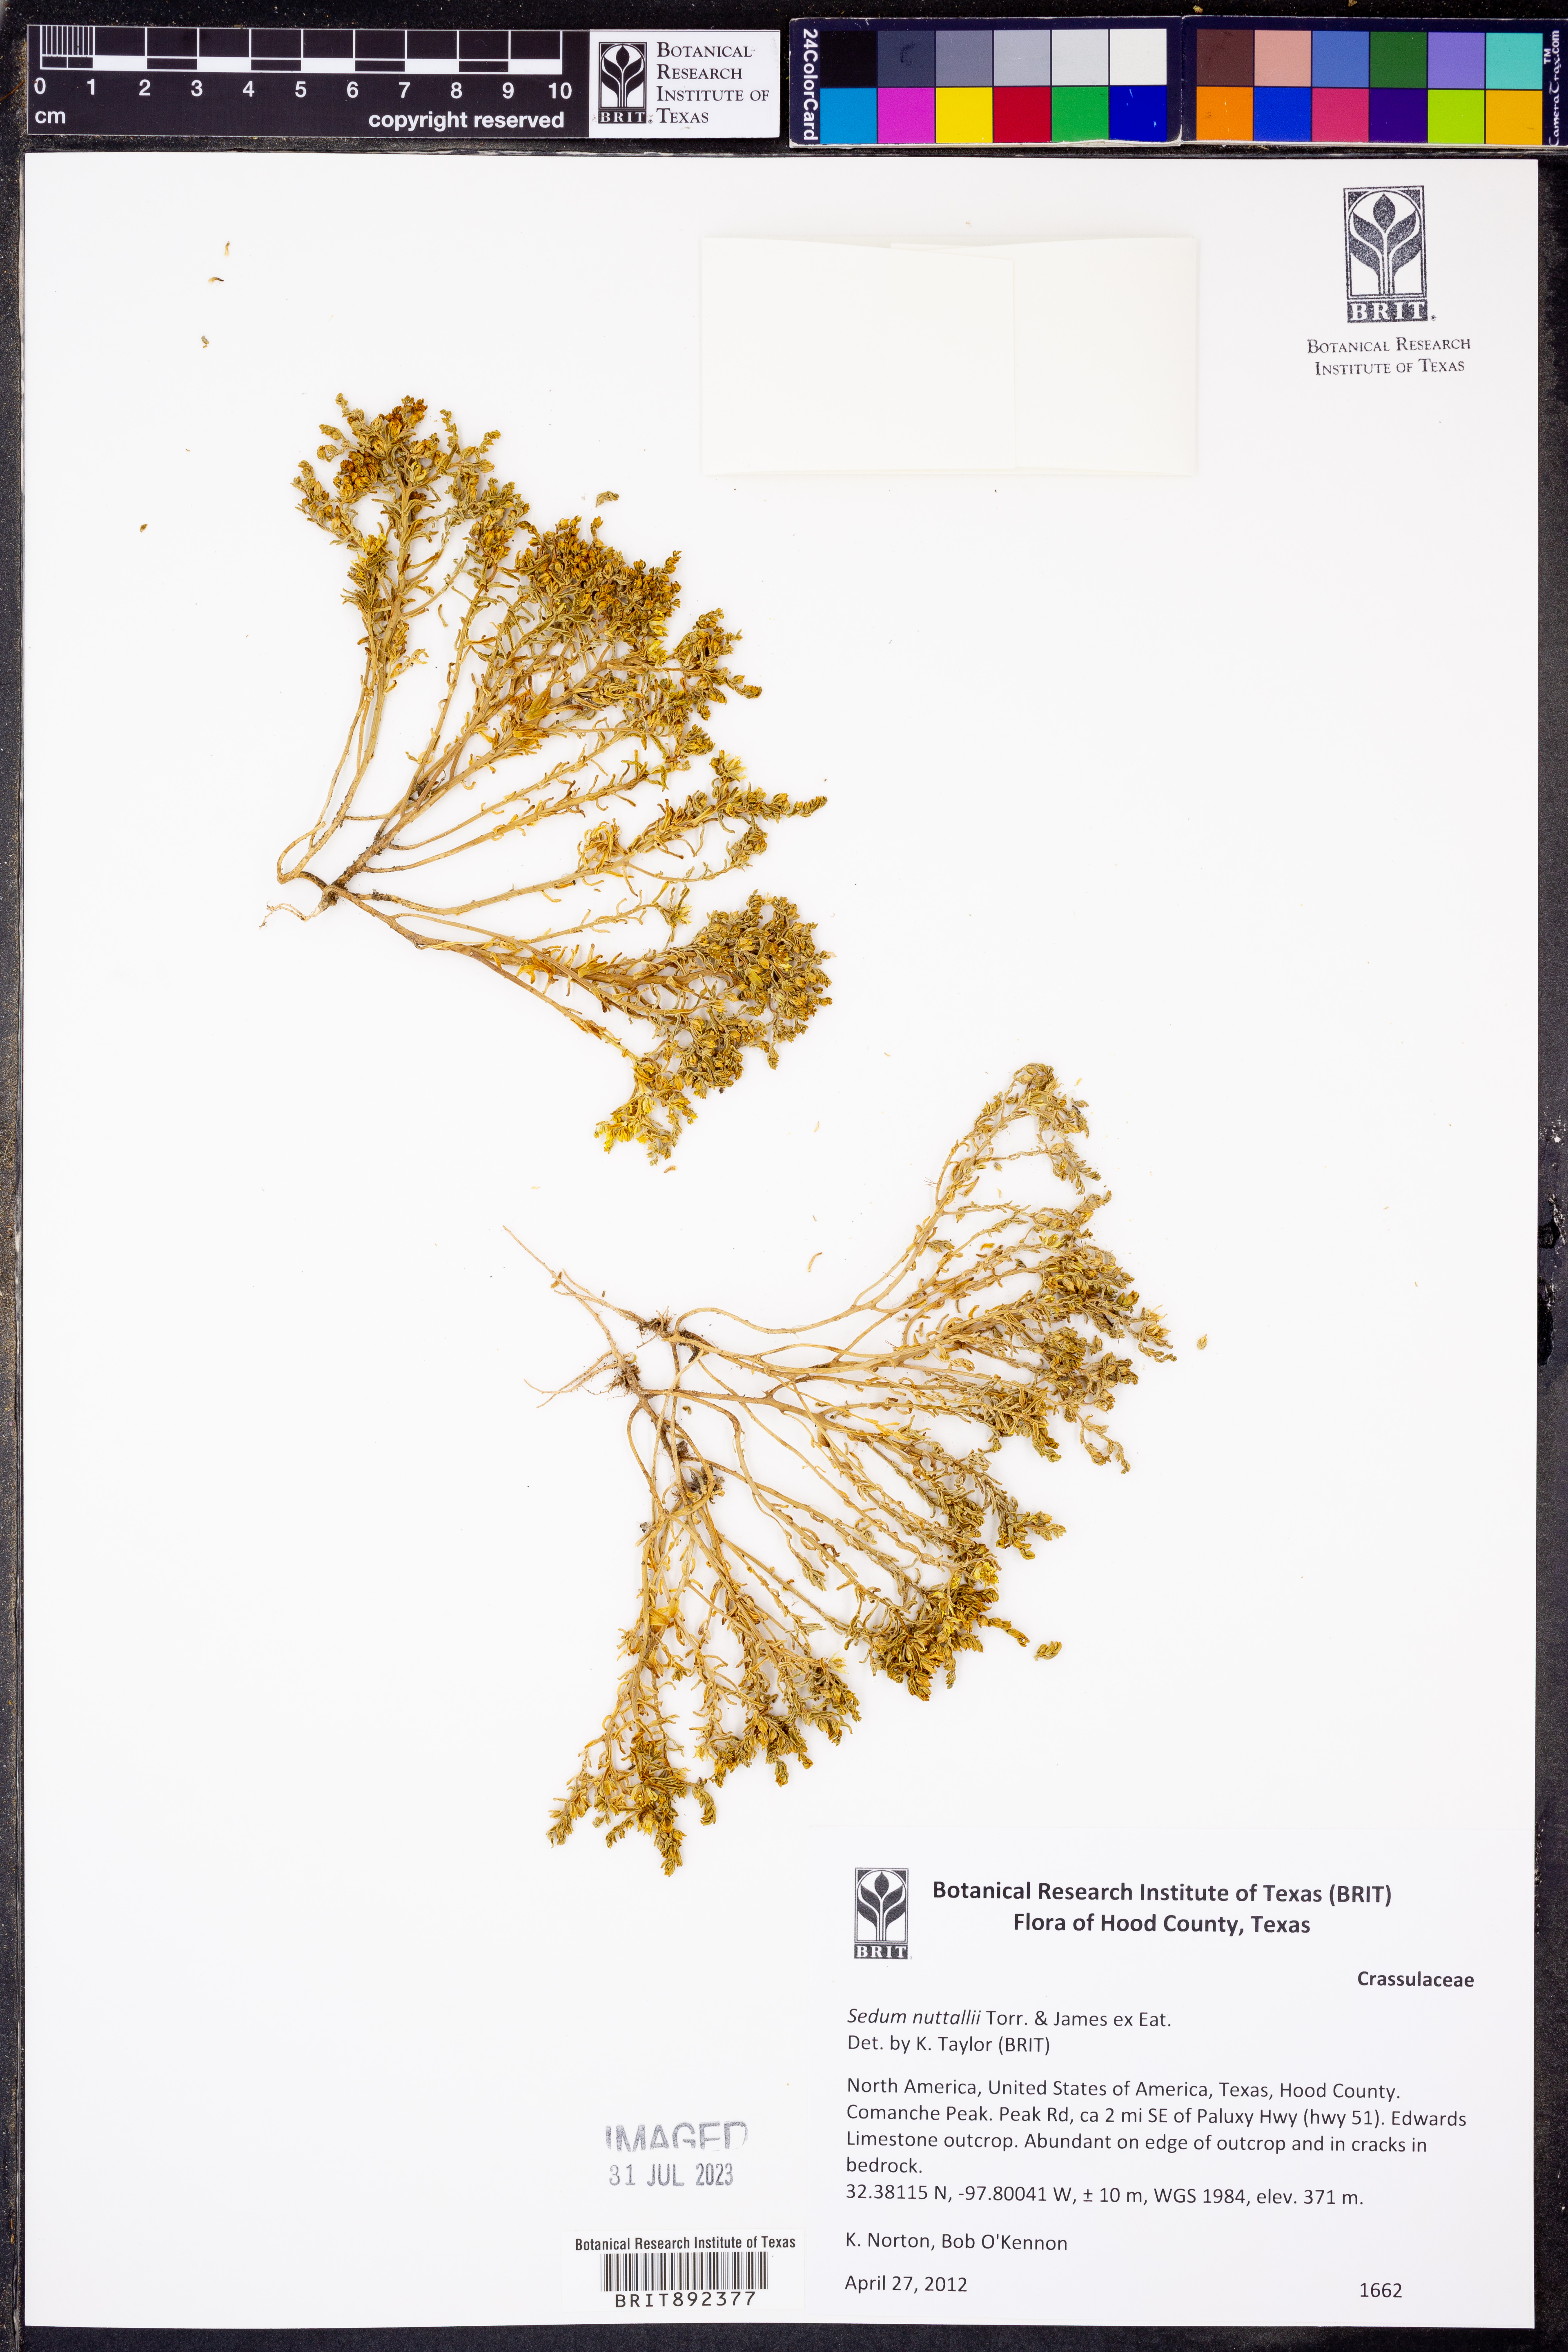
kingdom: Plantae
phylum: Tracheophyta
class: Magnoliopsida
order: Saxifragales
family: Crassulaceae
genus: Sedum
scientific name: Sedum nuttallii
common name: Yellow stonecrop
